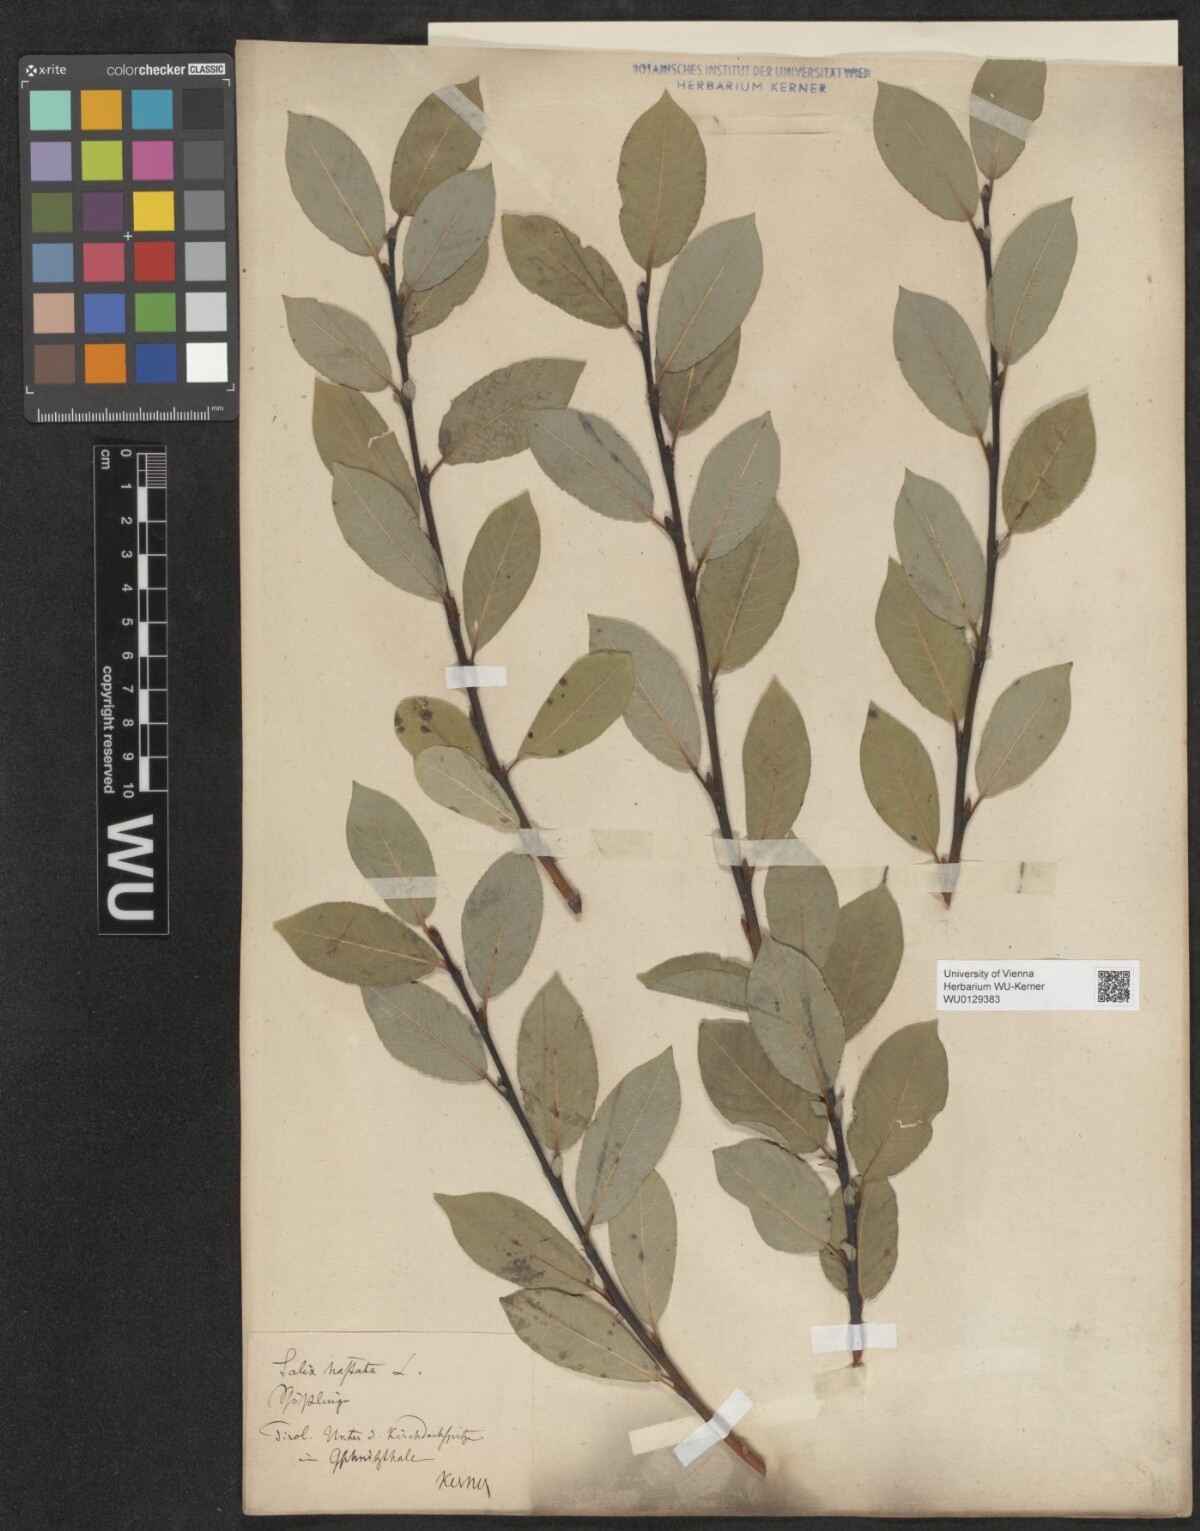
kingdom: Plantae
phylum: Tracheophyta
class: Magnoliopsida
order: Malpighiales
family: Salicaceae
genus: Salix
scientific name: Salix hastata
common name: Halberd willow
